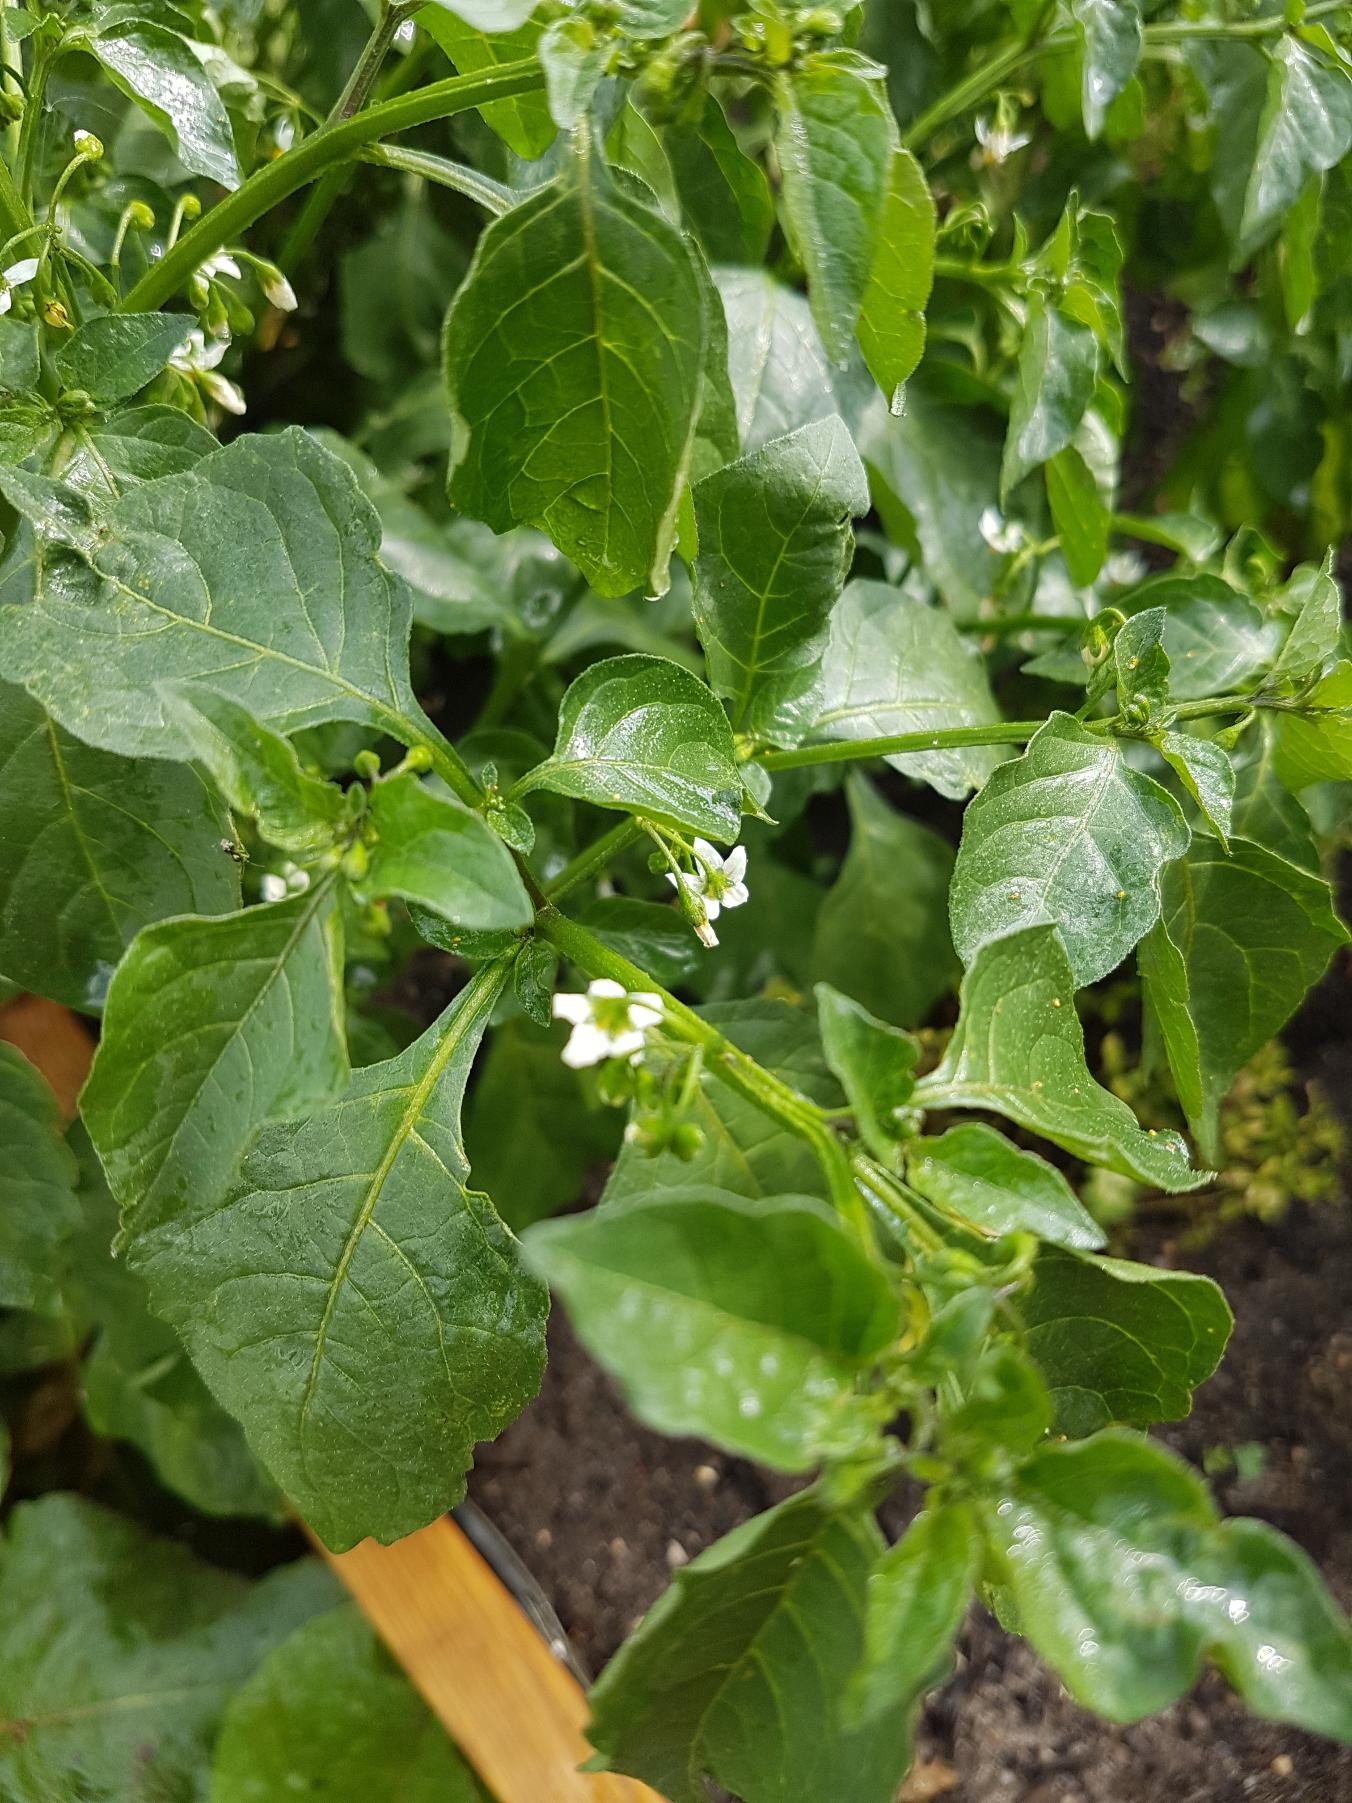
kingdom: Plantae
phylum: Tracheophyta
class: Magnoliopsida
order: Solanales
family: Solanaceae
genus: Solanum
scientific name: Solanum nigrum
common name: Sort natskygge
